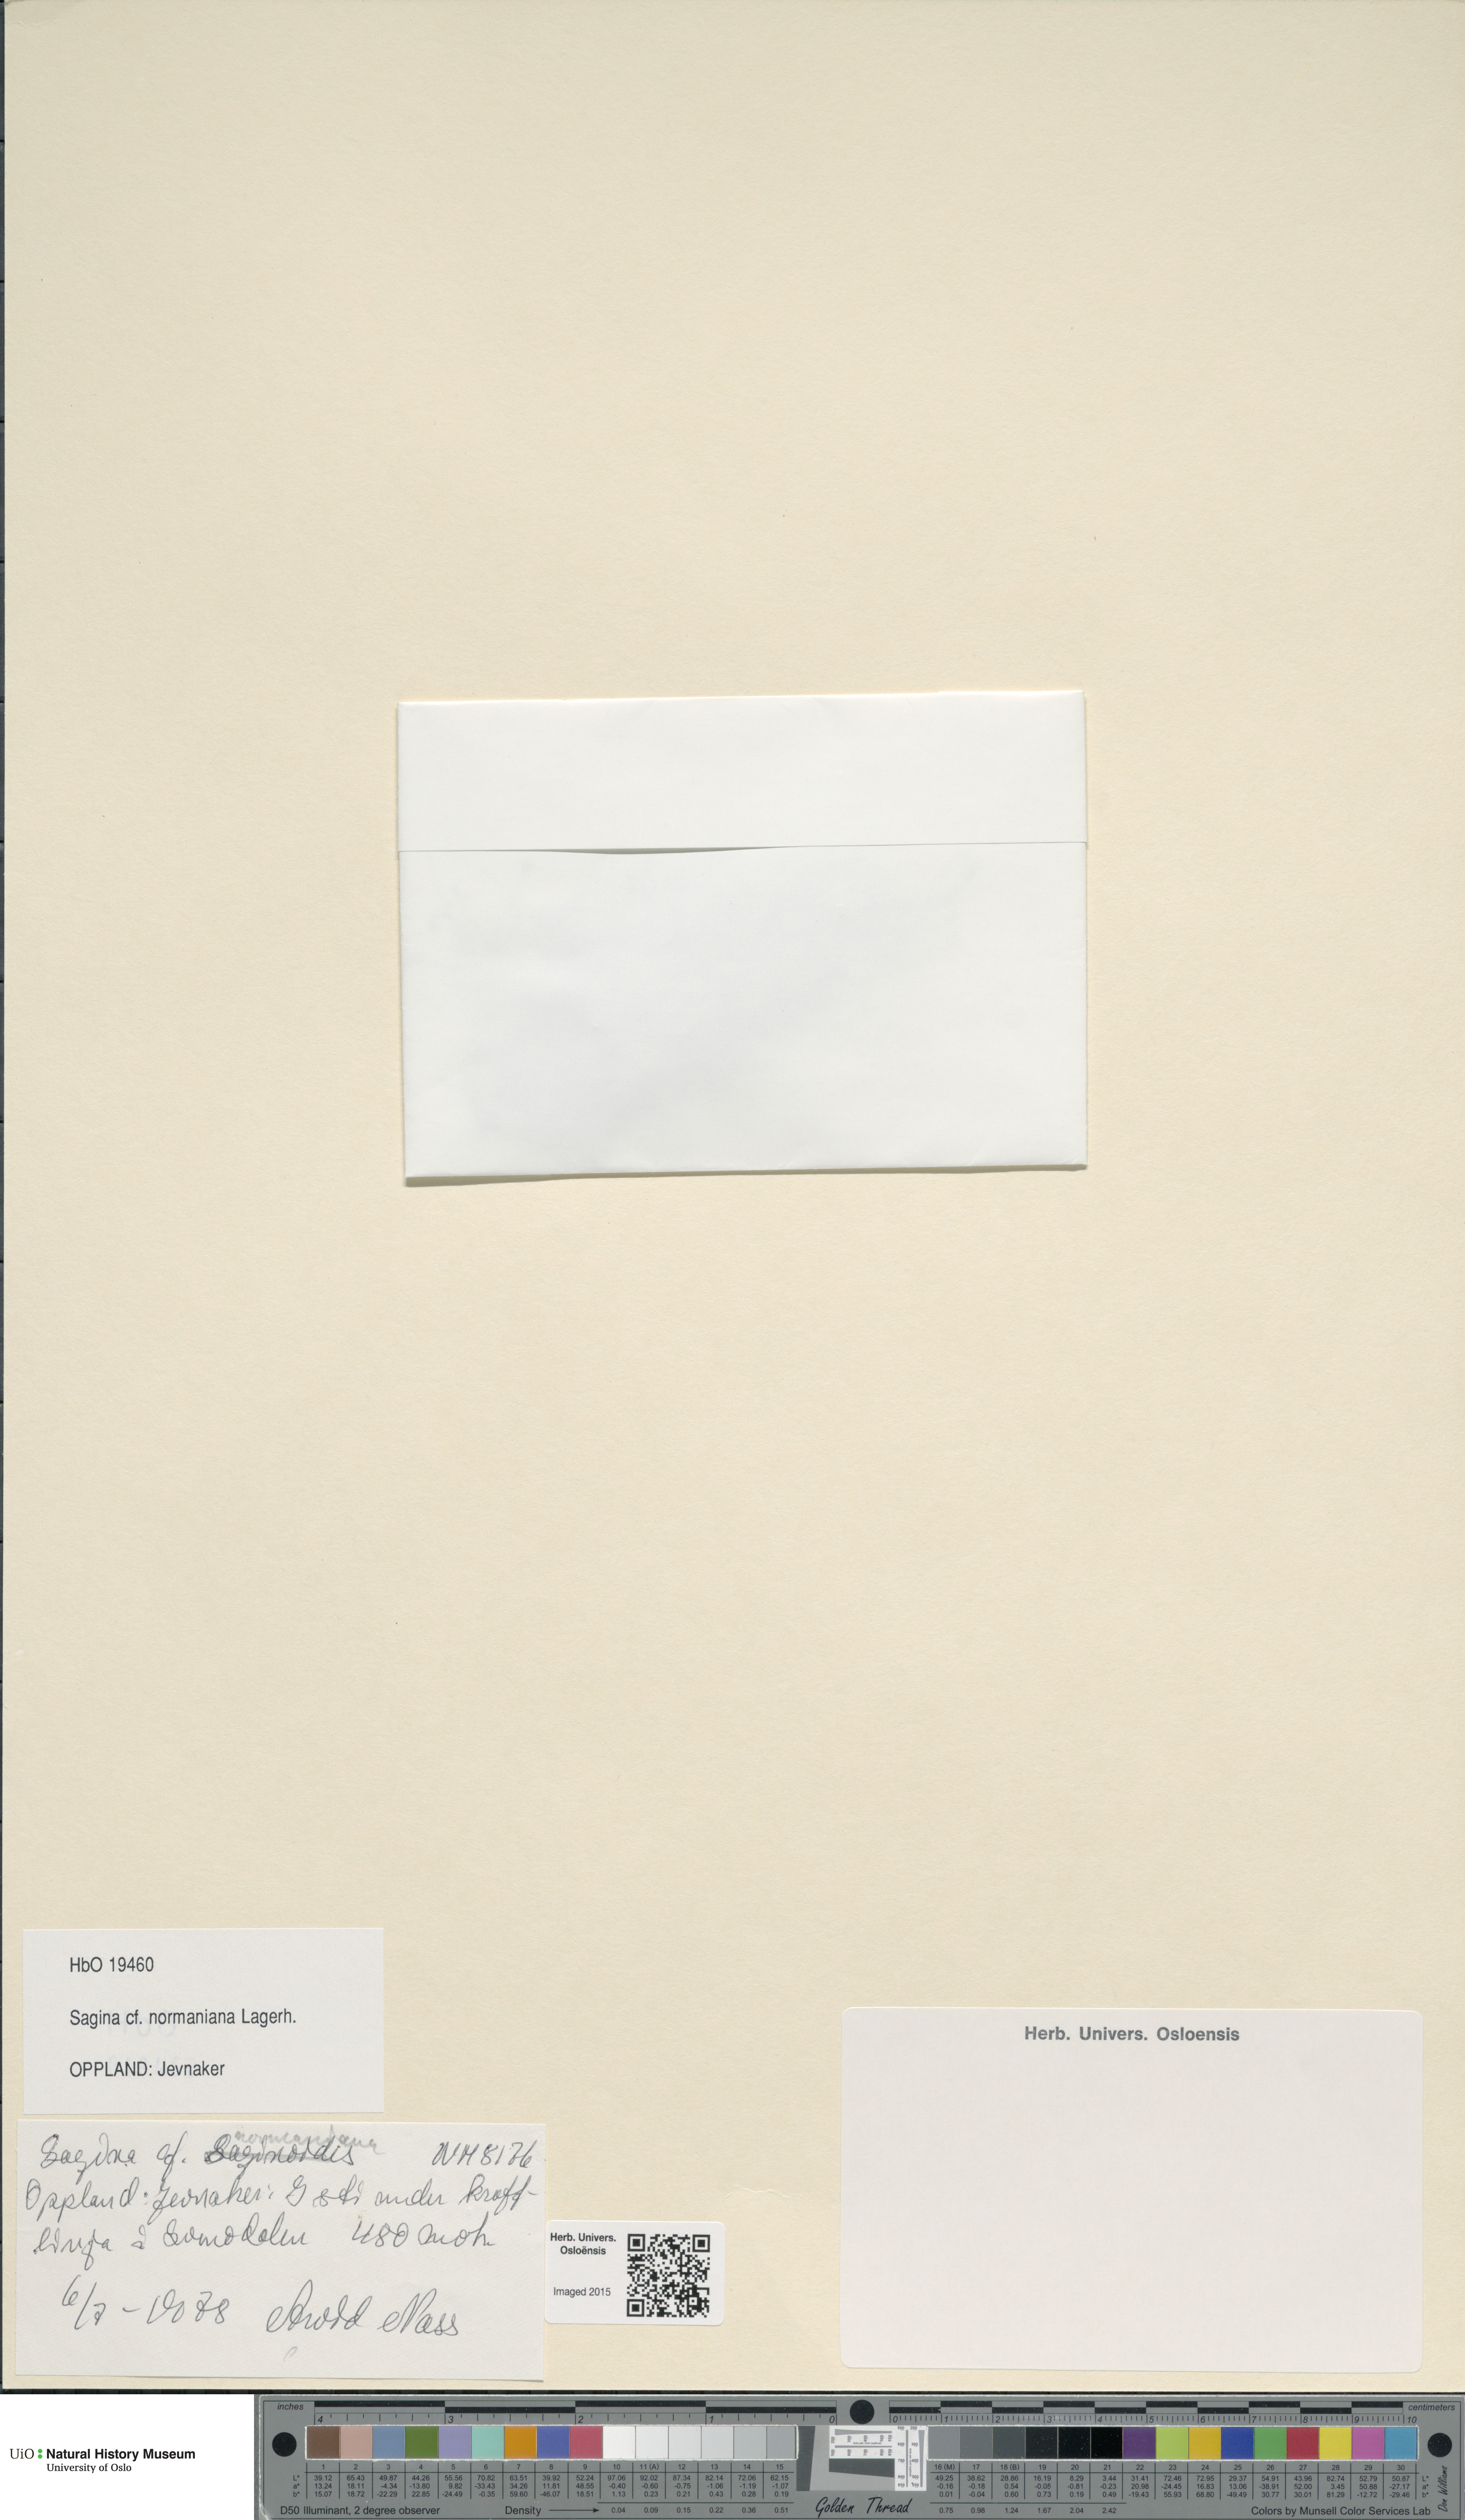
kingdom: Plantae
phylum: Tracheophyta
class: Magnoliopsida
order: Caryophyllales
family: Caryophyllaceae
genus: Sagina
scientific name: Sagina media
